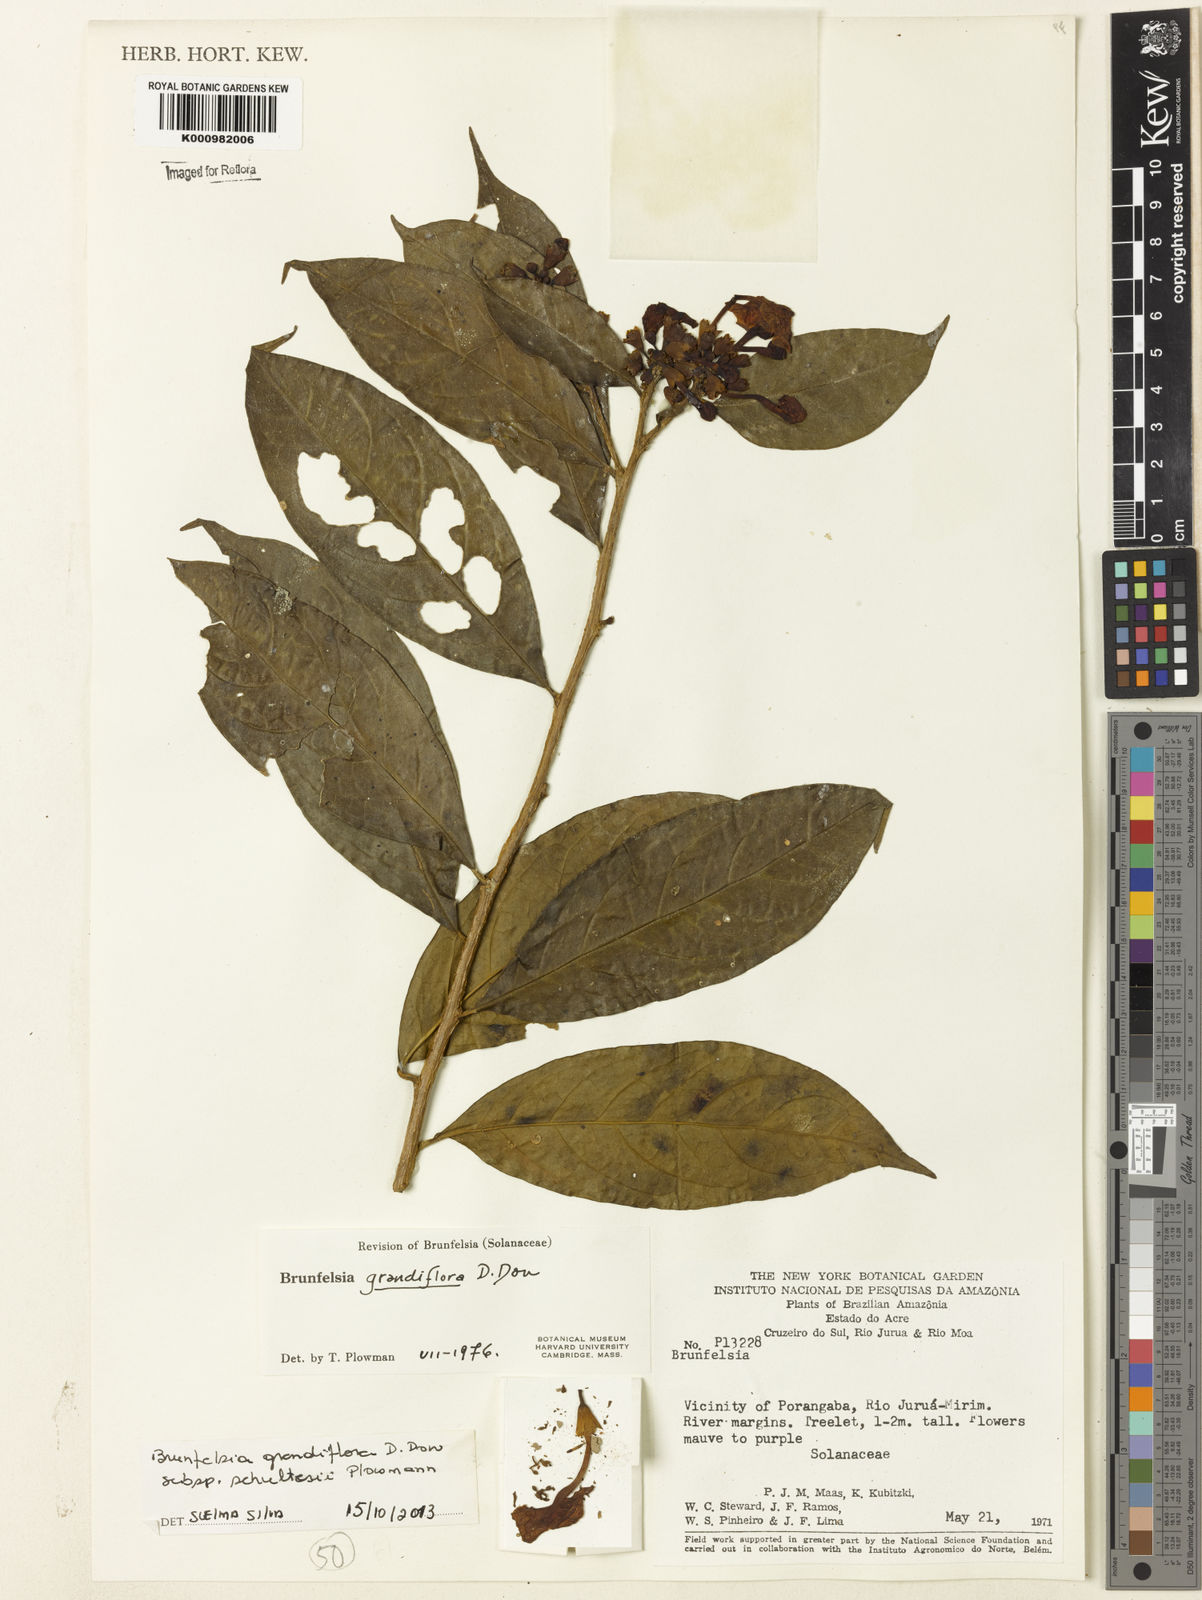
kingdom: Plantae
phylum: Tracheophyta
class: Magnoliopsida
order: Solanales
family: Solanaceae
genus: Brunfelsia
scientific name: Brunfelsia grandiflora
